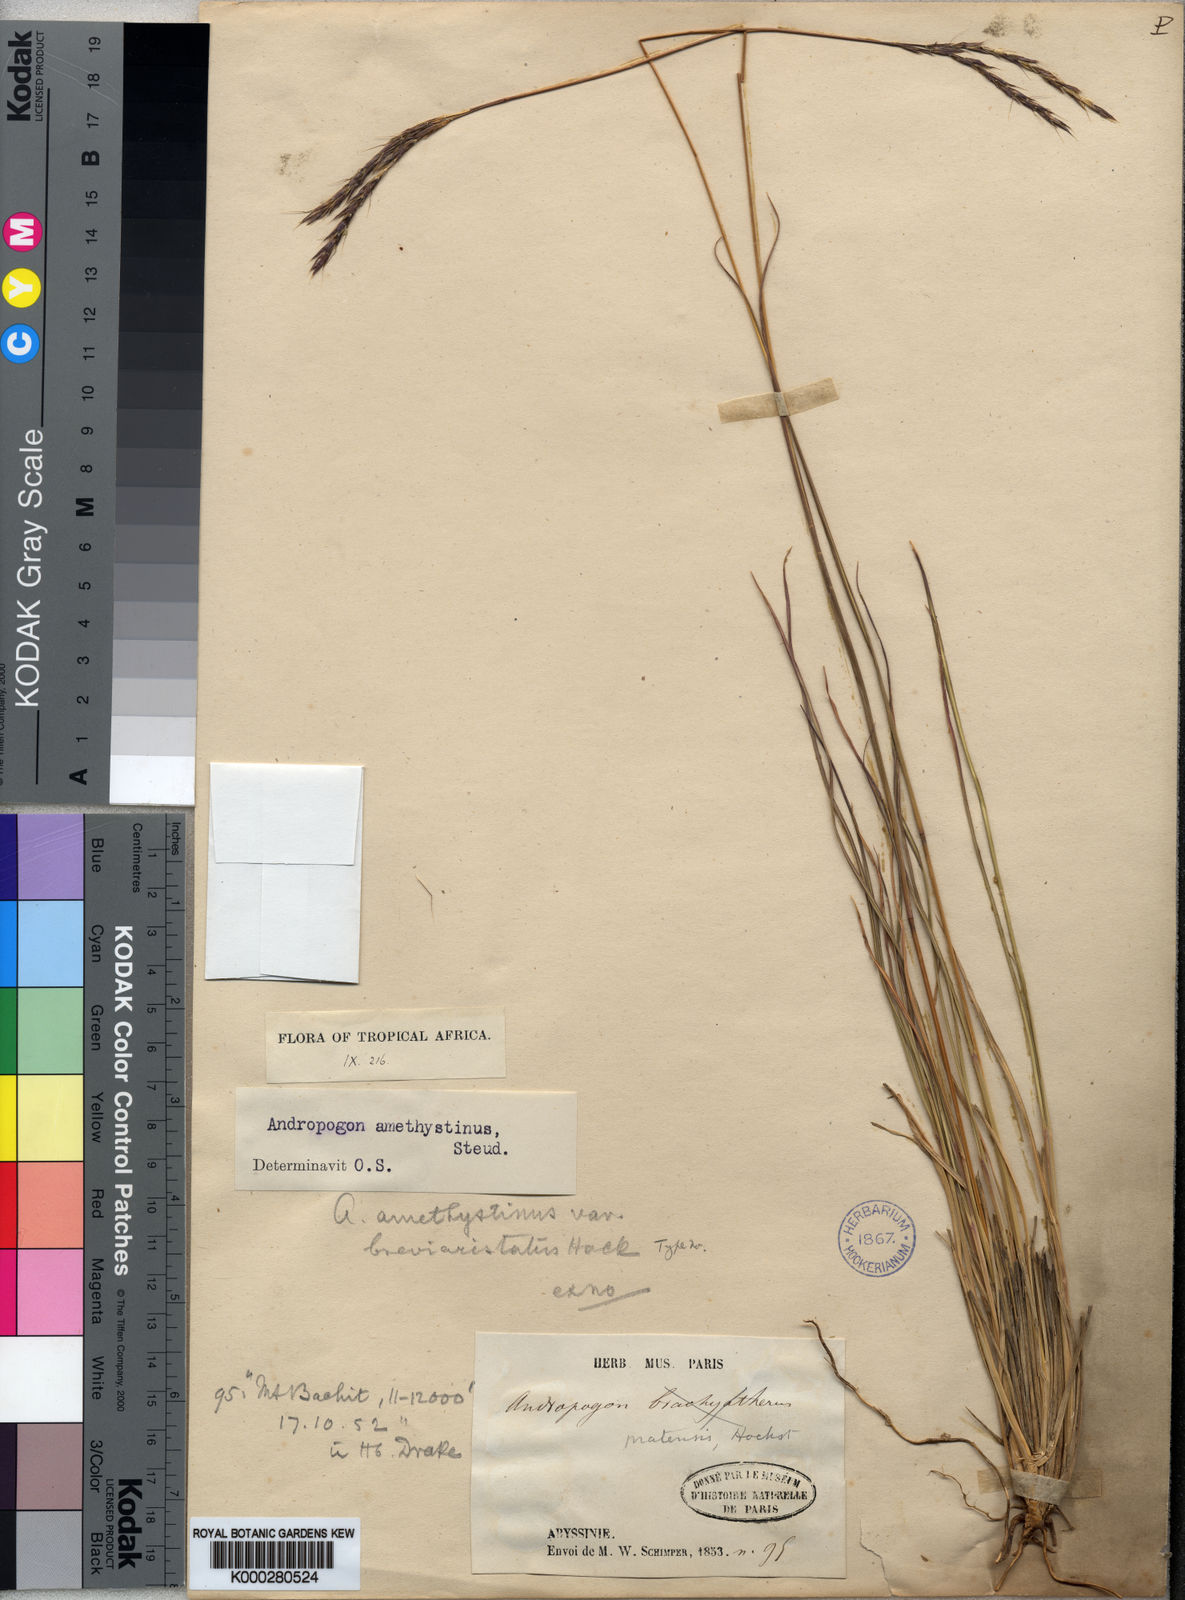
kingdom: Plantae
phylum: Tracheophyta
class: Liliopsida
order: Poales
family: Poaceae
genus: Andropogon
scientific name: Andropogon lima
